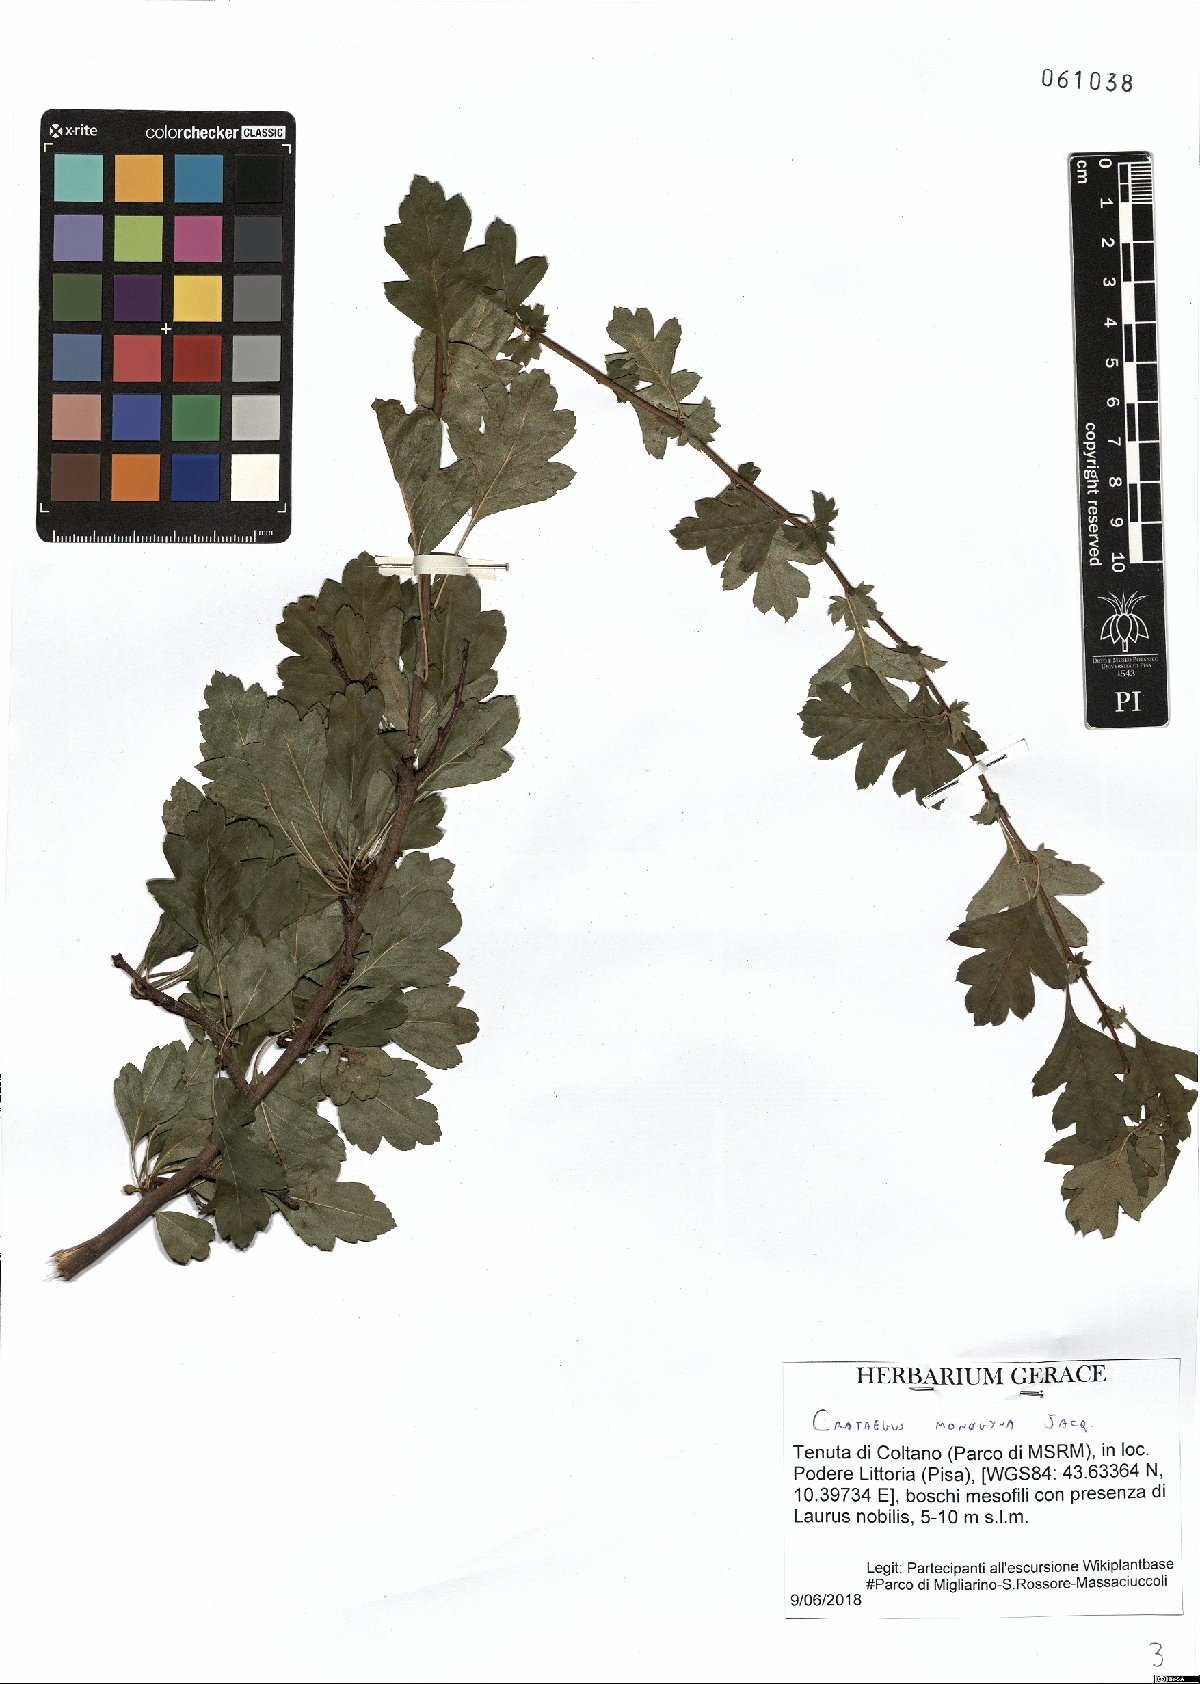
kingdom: Plantae
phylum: Tracheophyta
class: Magnoliopsida
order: Rosales
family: Rosaceae
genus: Crataegus
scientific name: Crataegus monogyna
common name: Hawthorn
